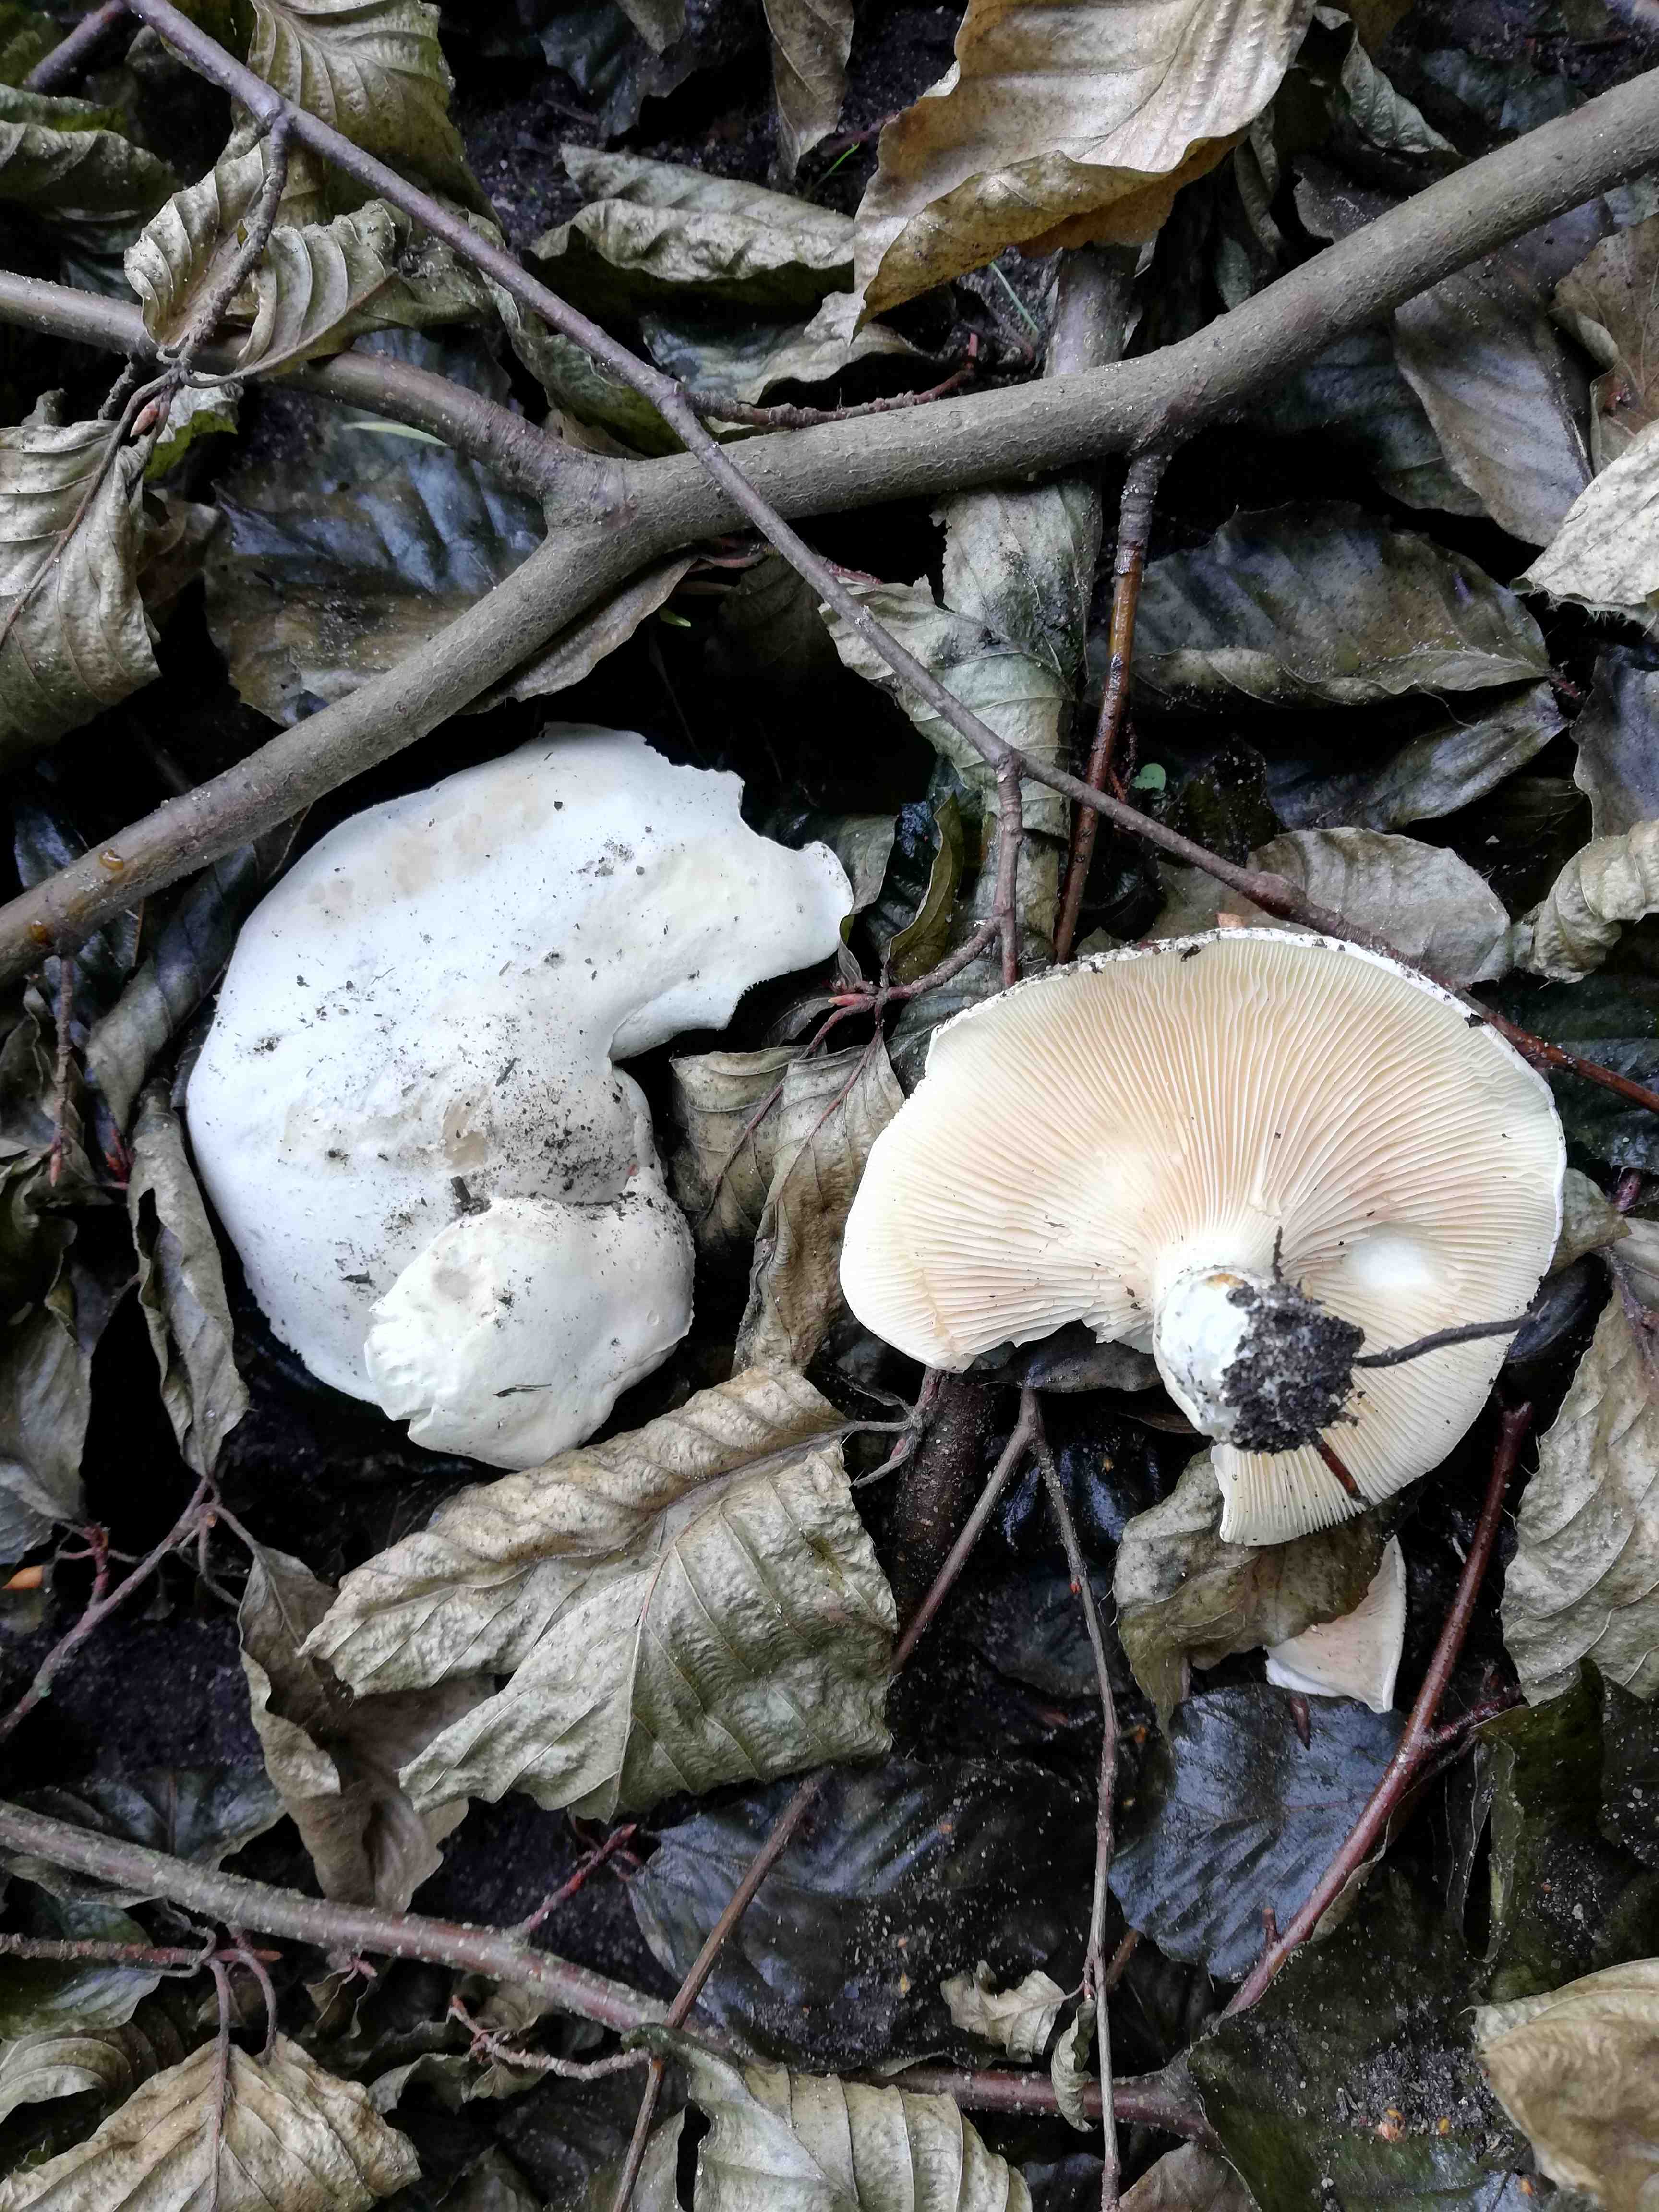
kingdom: Fungi
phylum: Basidiomycota
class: Agaricomycetes
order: Agaricales
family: Entolomataceae
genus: Clitopilus
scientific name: Clitopilus prunulus
